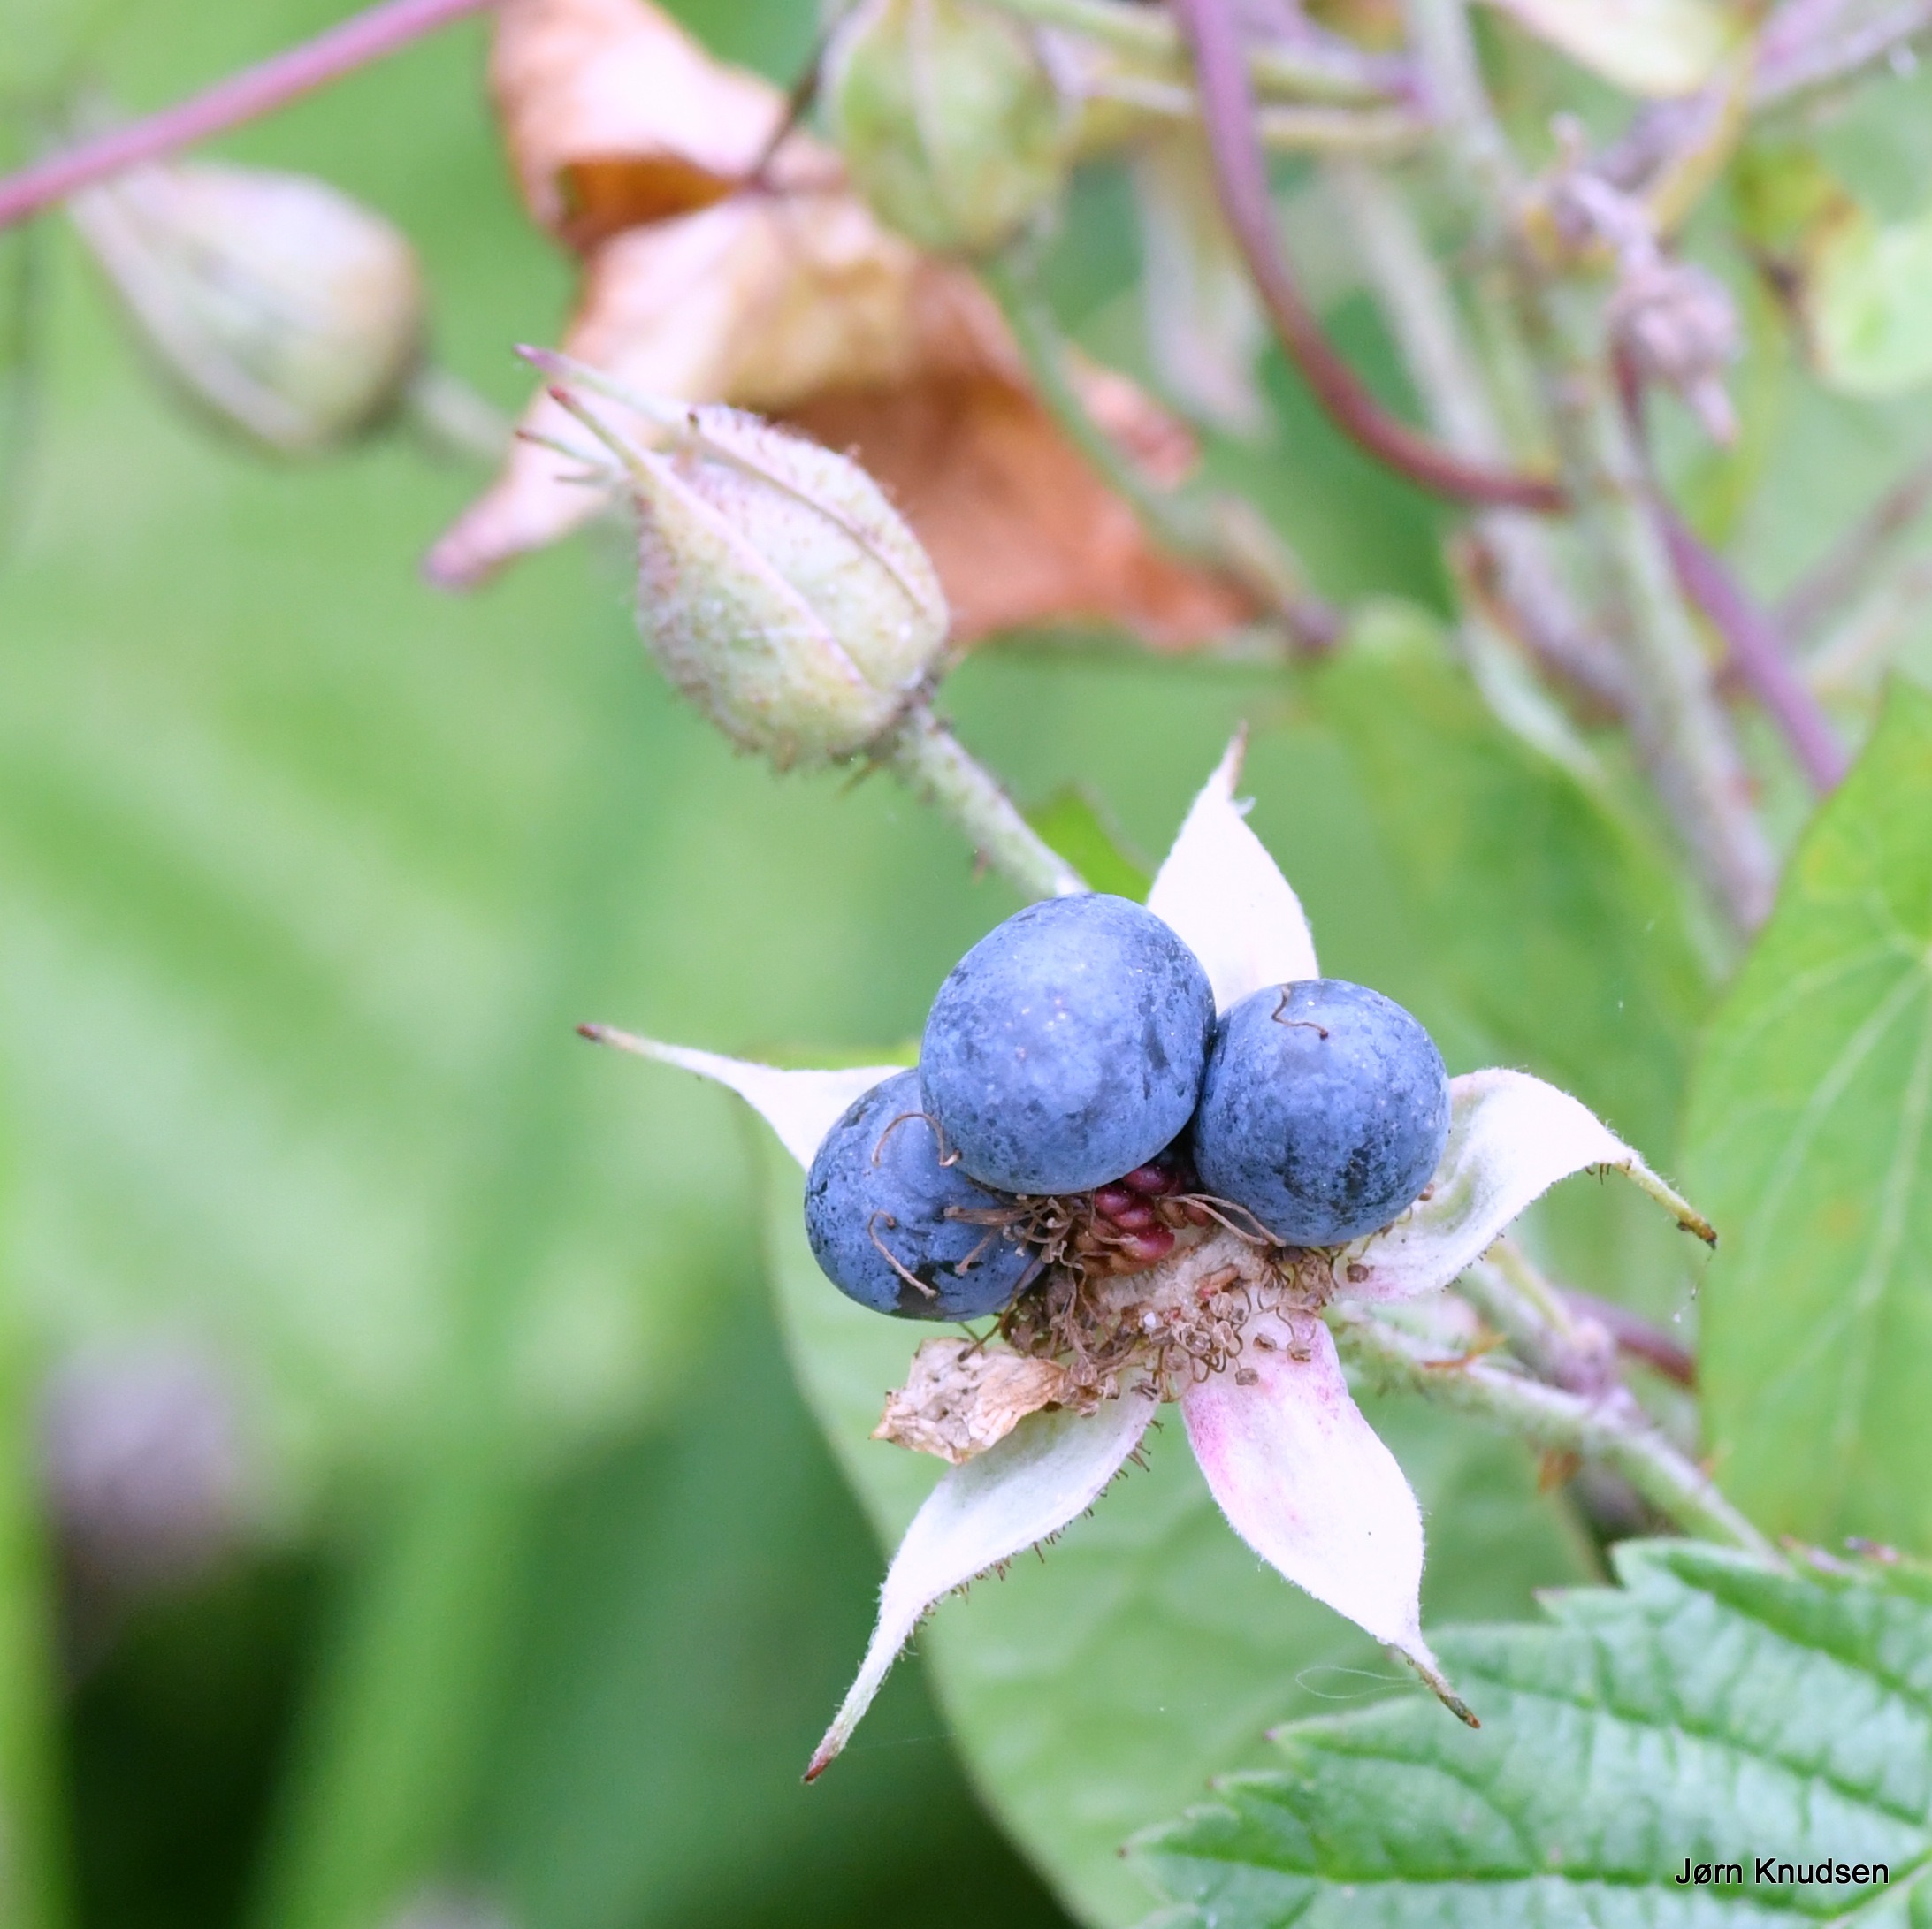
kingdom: Plantae
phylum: Tracheophyta
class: Magnoliopsida
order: Rosales
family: Rosaceae
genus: Rubus
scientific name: Rubus caesius
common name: Korbær
